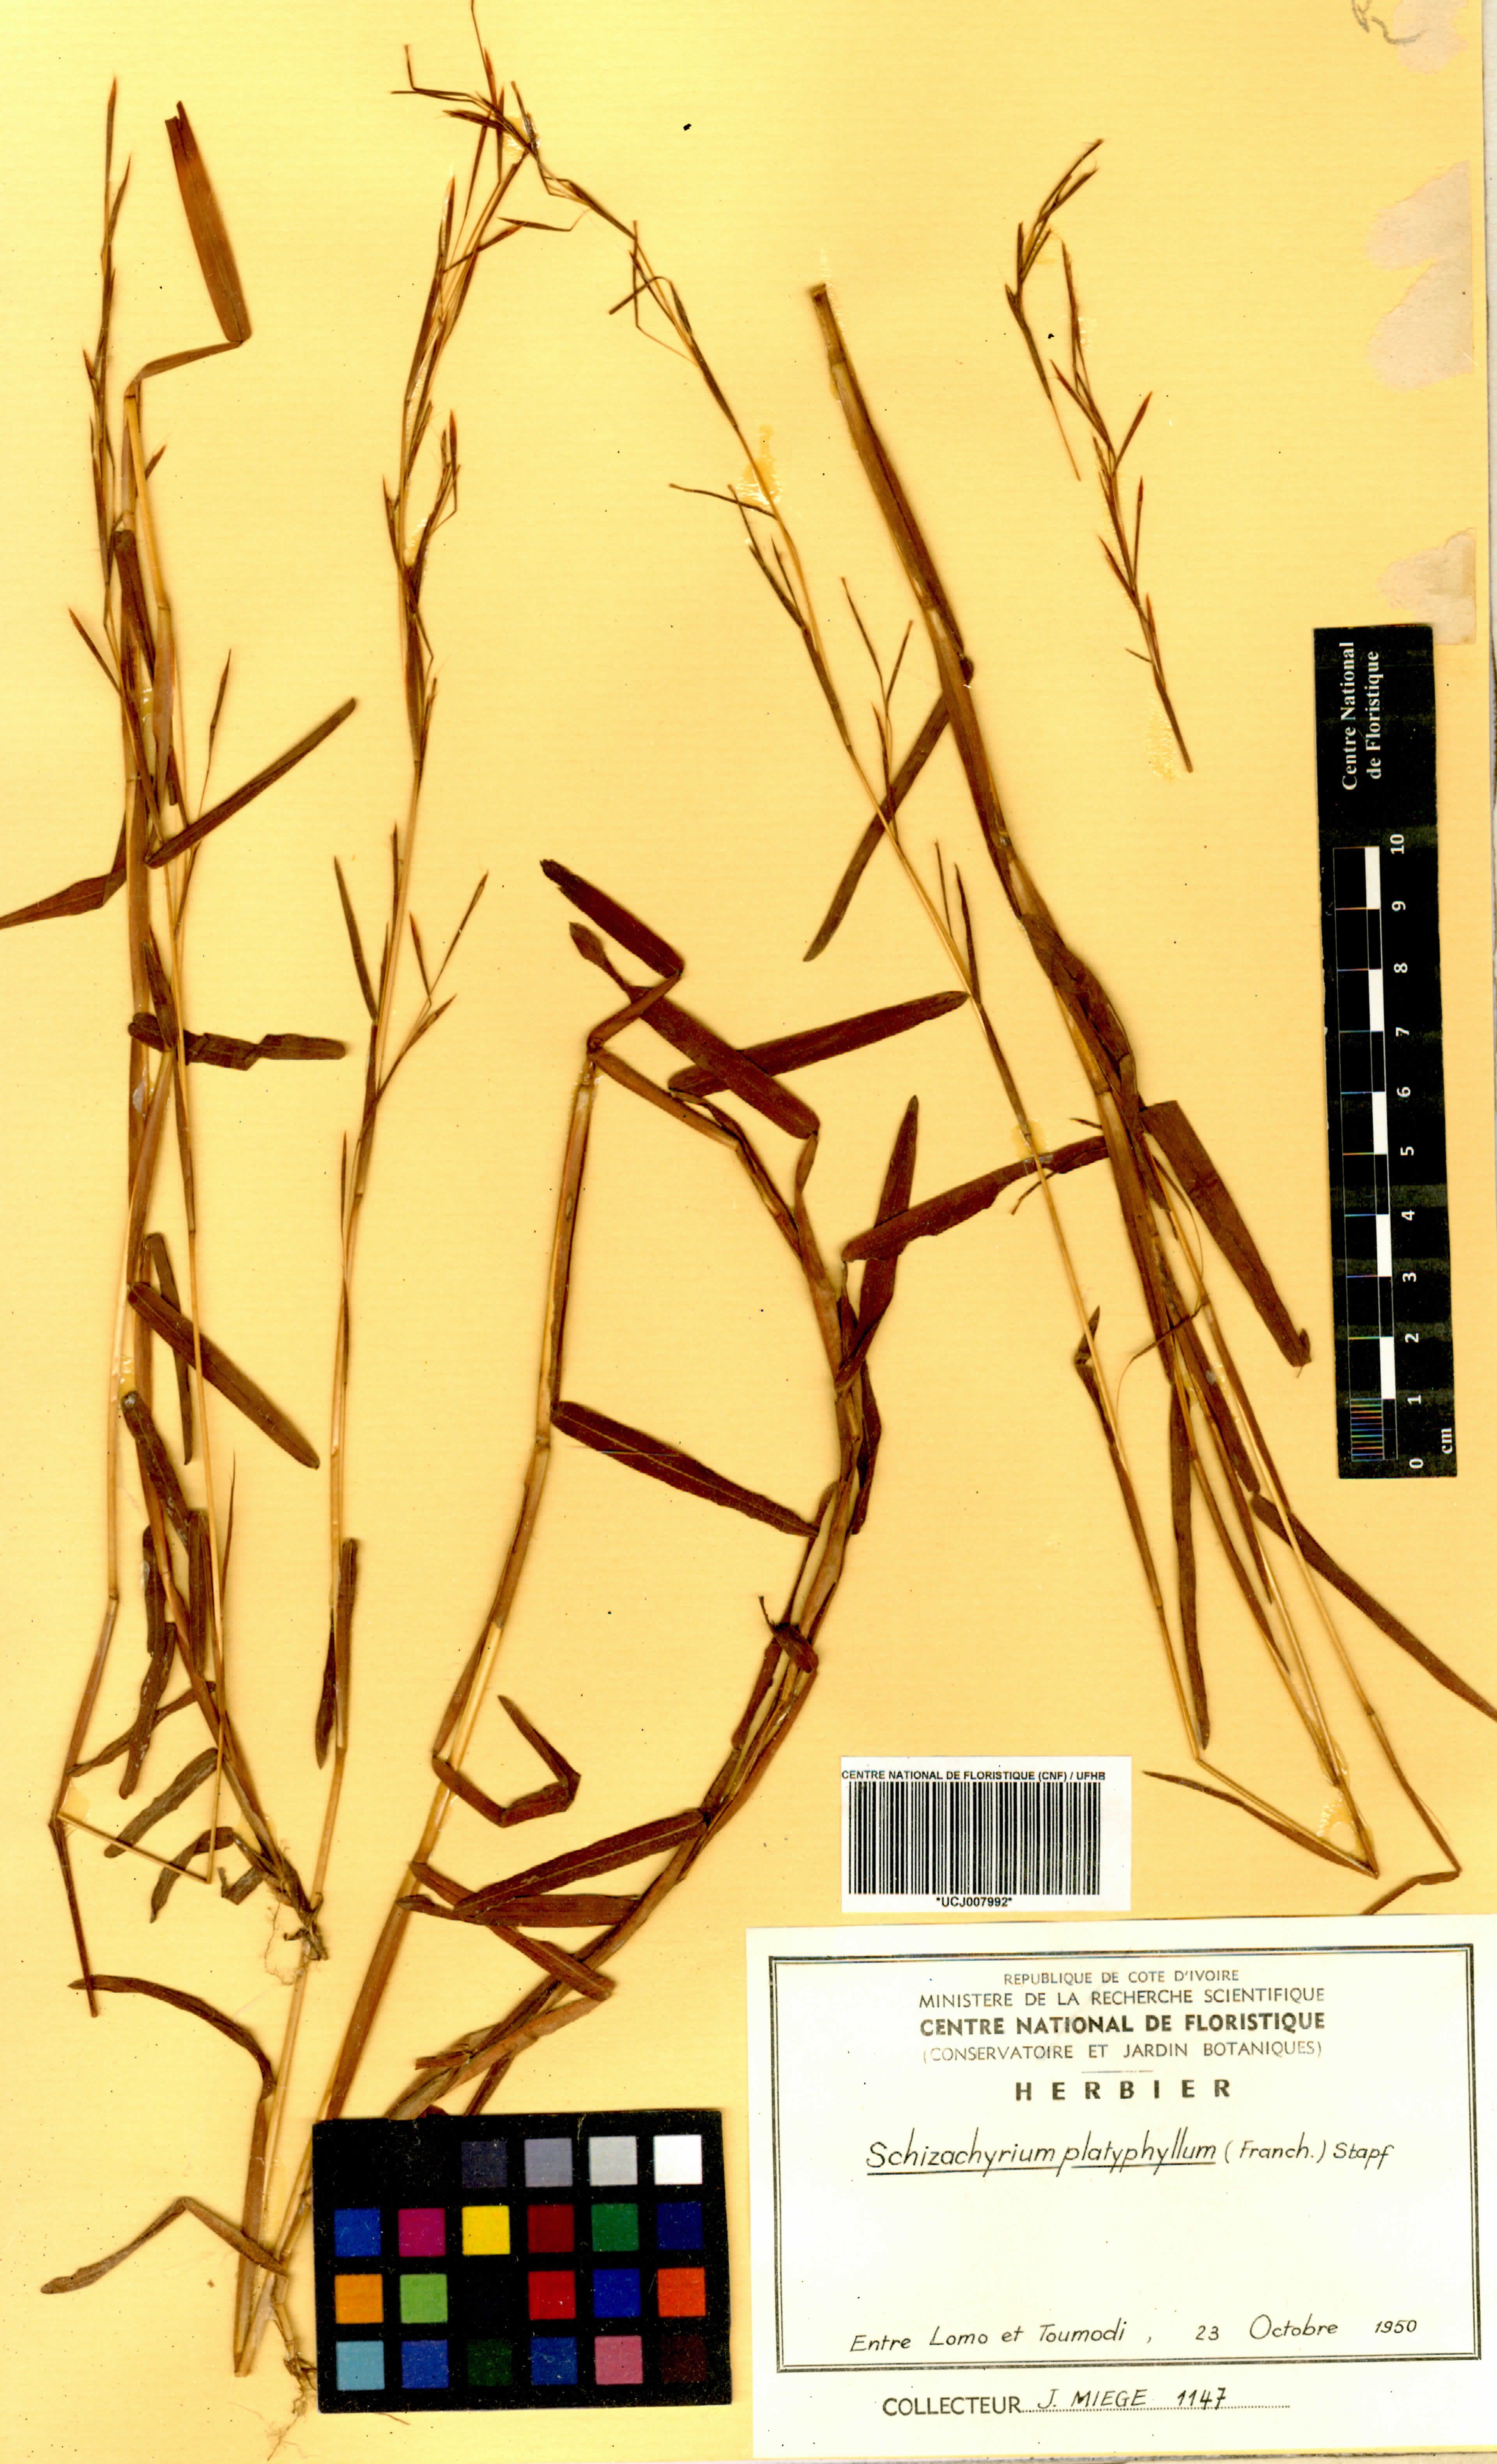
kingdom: Plantae
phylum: Tracheophyta
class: Liliopsida
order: Poales
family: Poaceae
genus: Schizachyrium
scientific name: Schizachyrium platyphyllum
